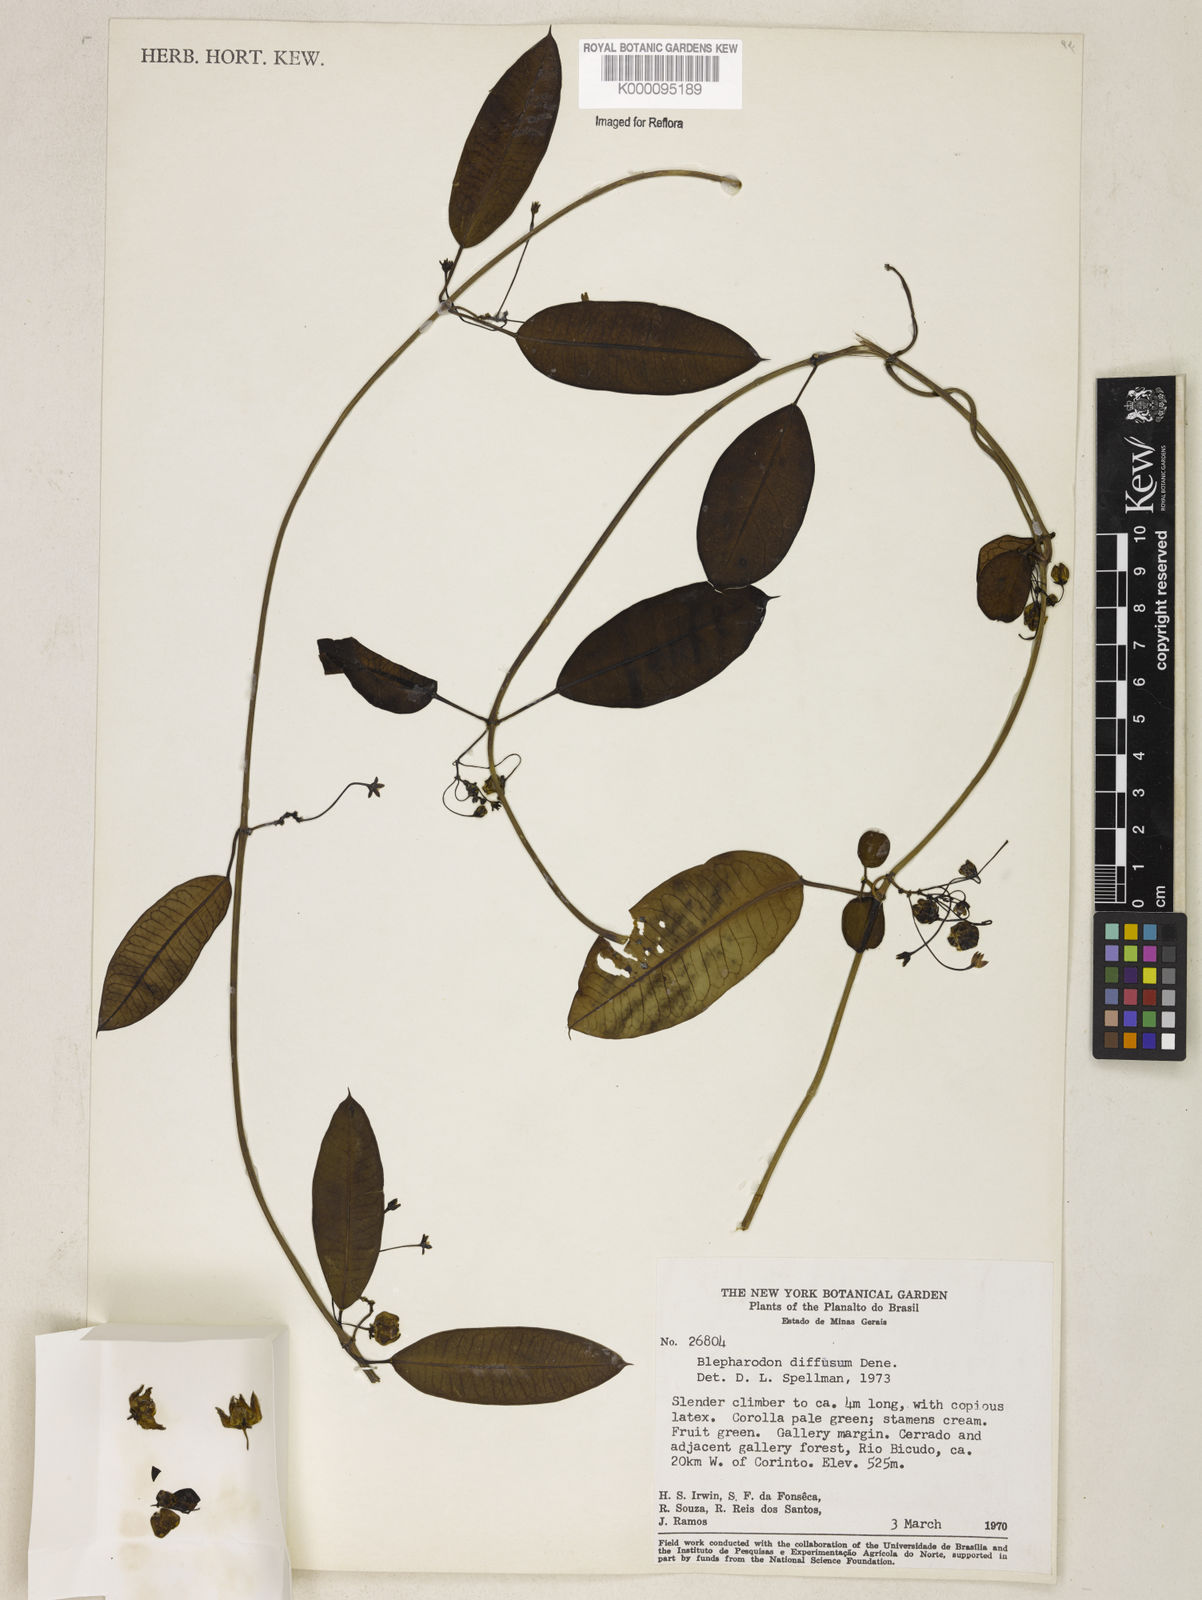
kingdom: Plantae
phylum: Tracheophyta
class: Magnoliopsida
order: Gentianales
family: Apocynaceae
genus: Blepharodon
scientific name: Blepharodon pictum
